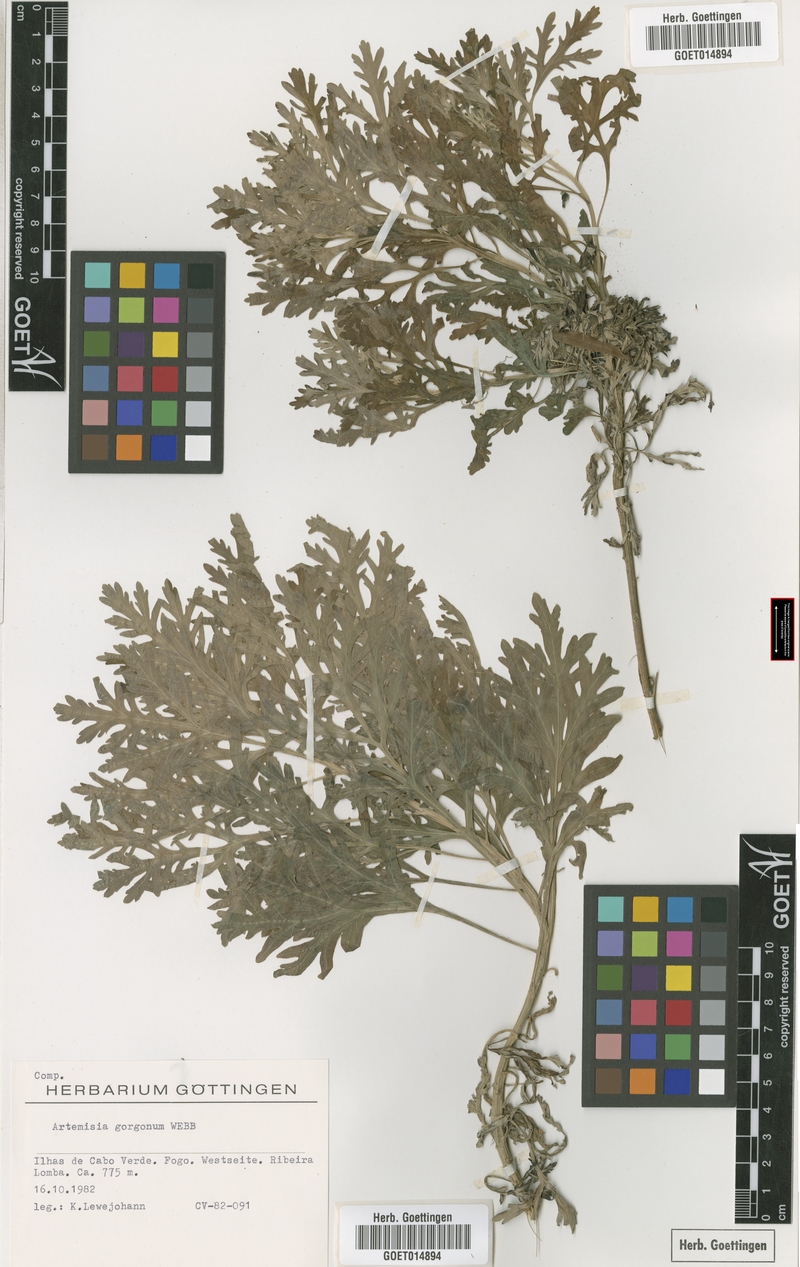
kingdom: Plantae
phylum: Tracheophyta
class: Magnoliopsida
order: Asterales
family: Asteraceae
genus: Artemisia
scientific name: Artemisia gorgonum
